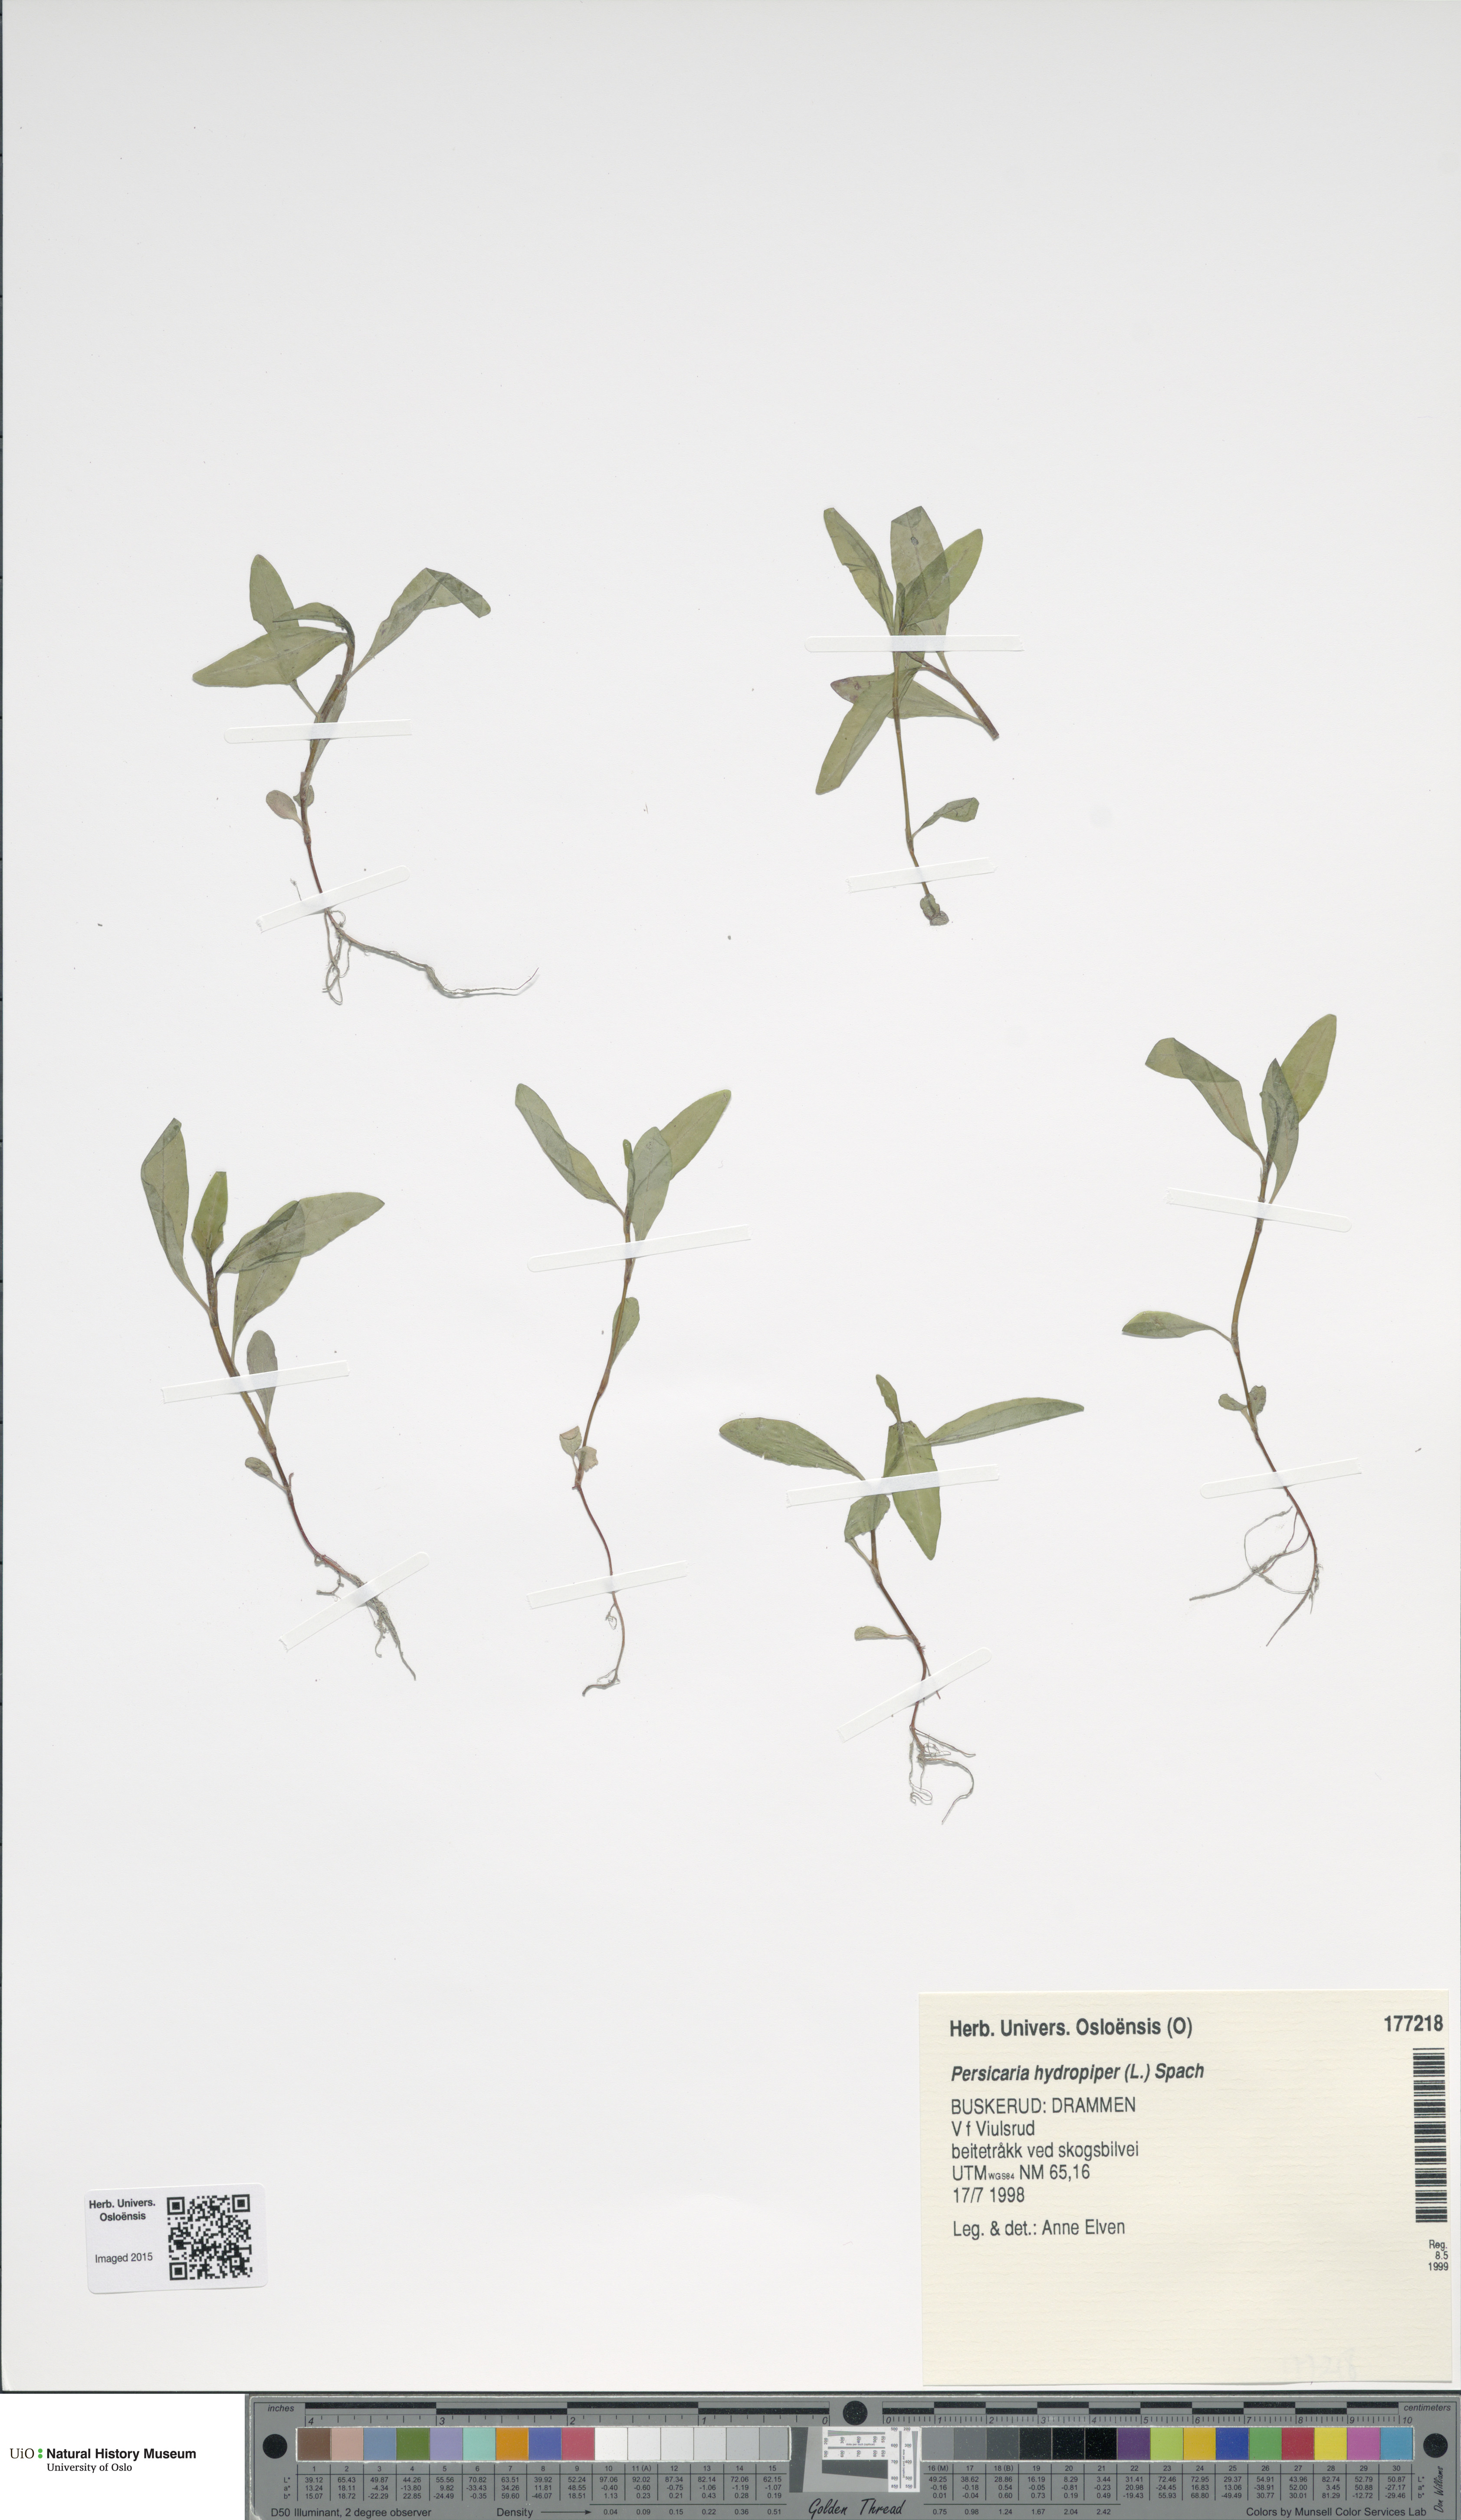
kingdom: Plantae
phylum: Tracheophyta
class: Magnoliopsida
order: Caryophyllales
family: Polygonaceae
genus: Persicaria
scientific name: Persicaria hydropiper
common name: Water-pepper
